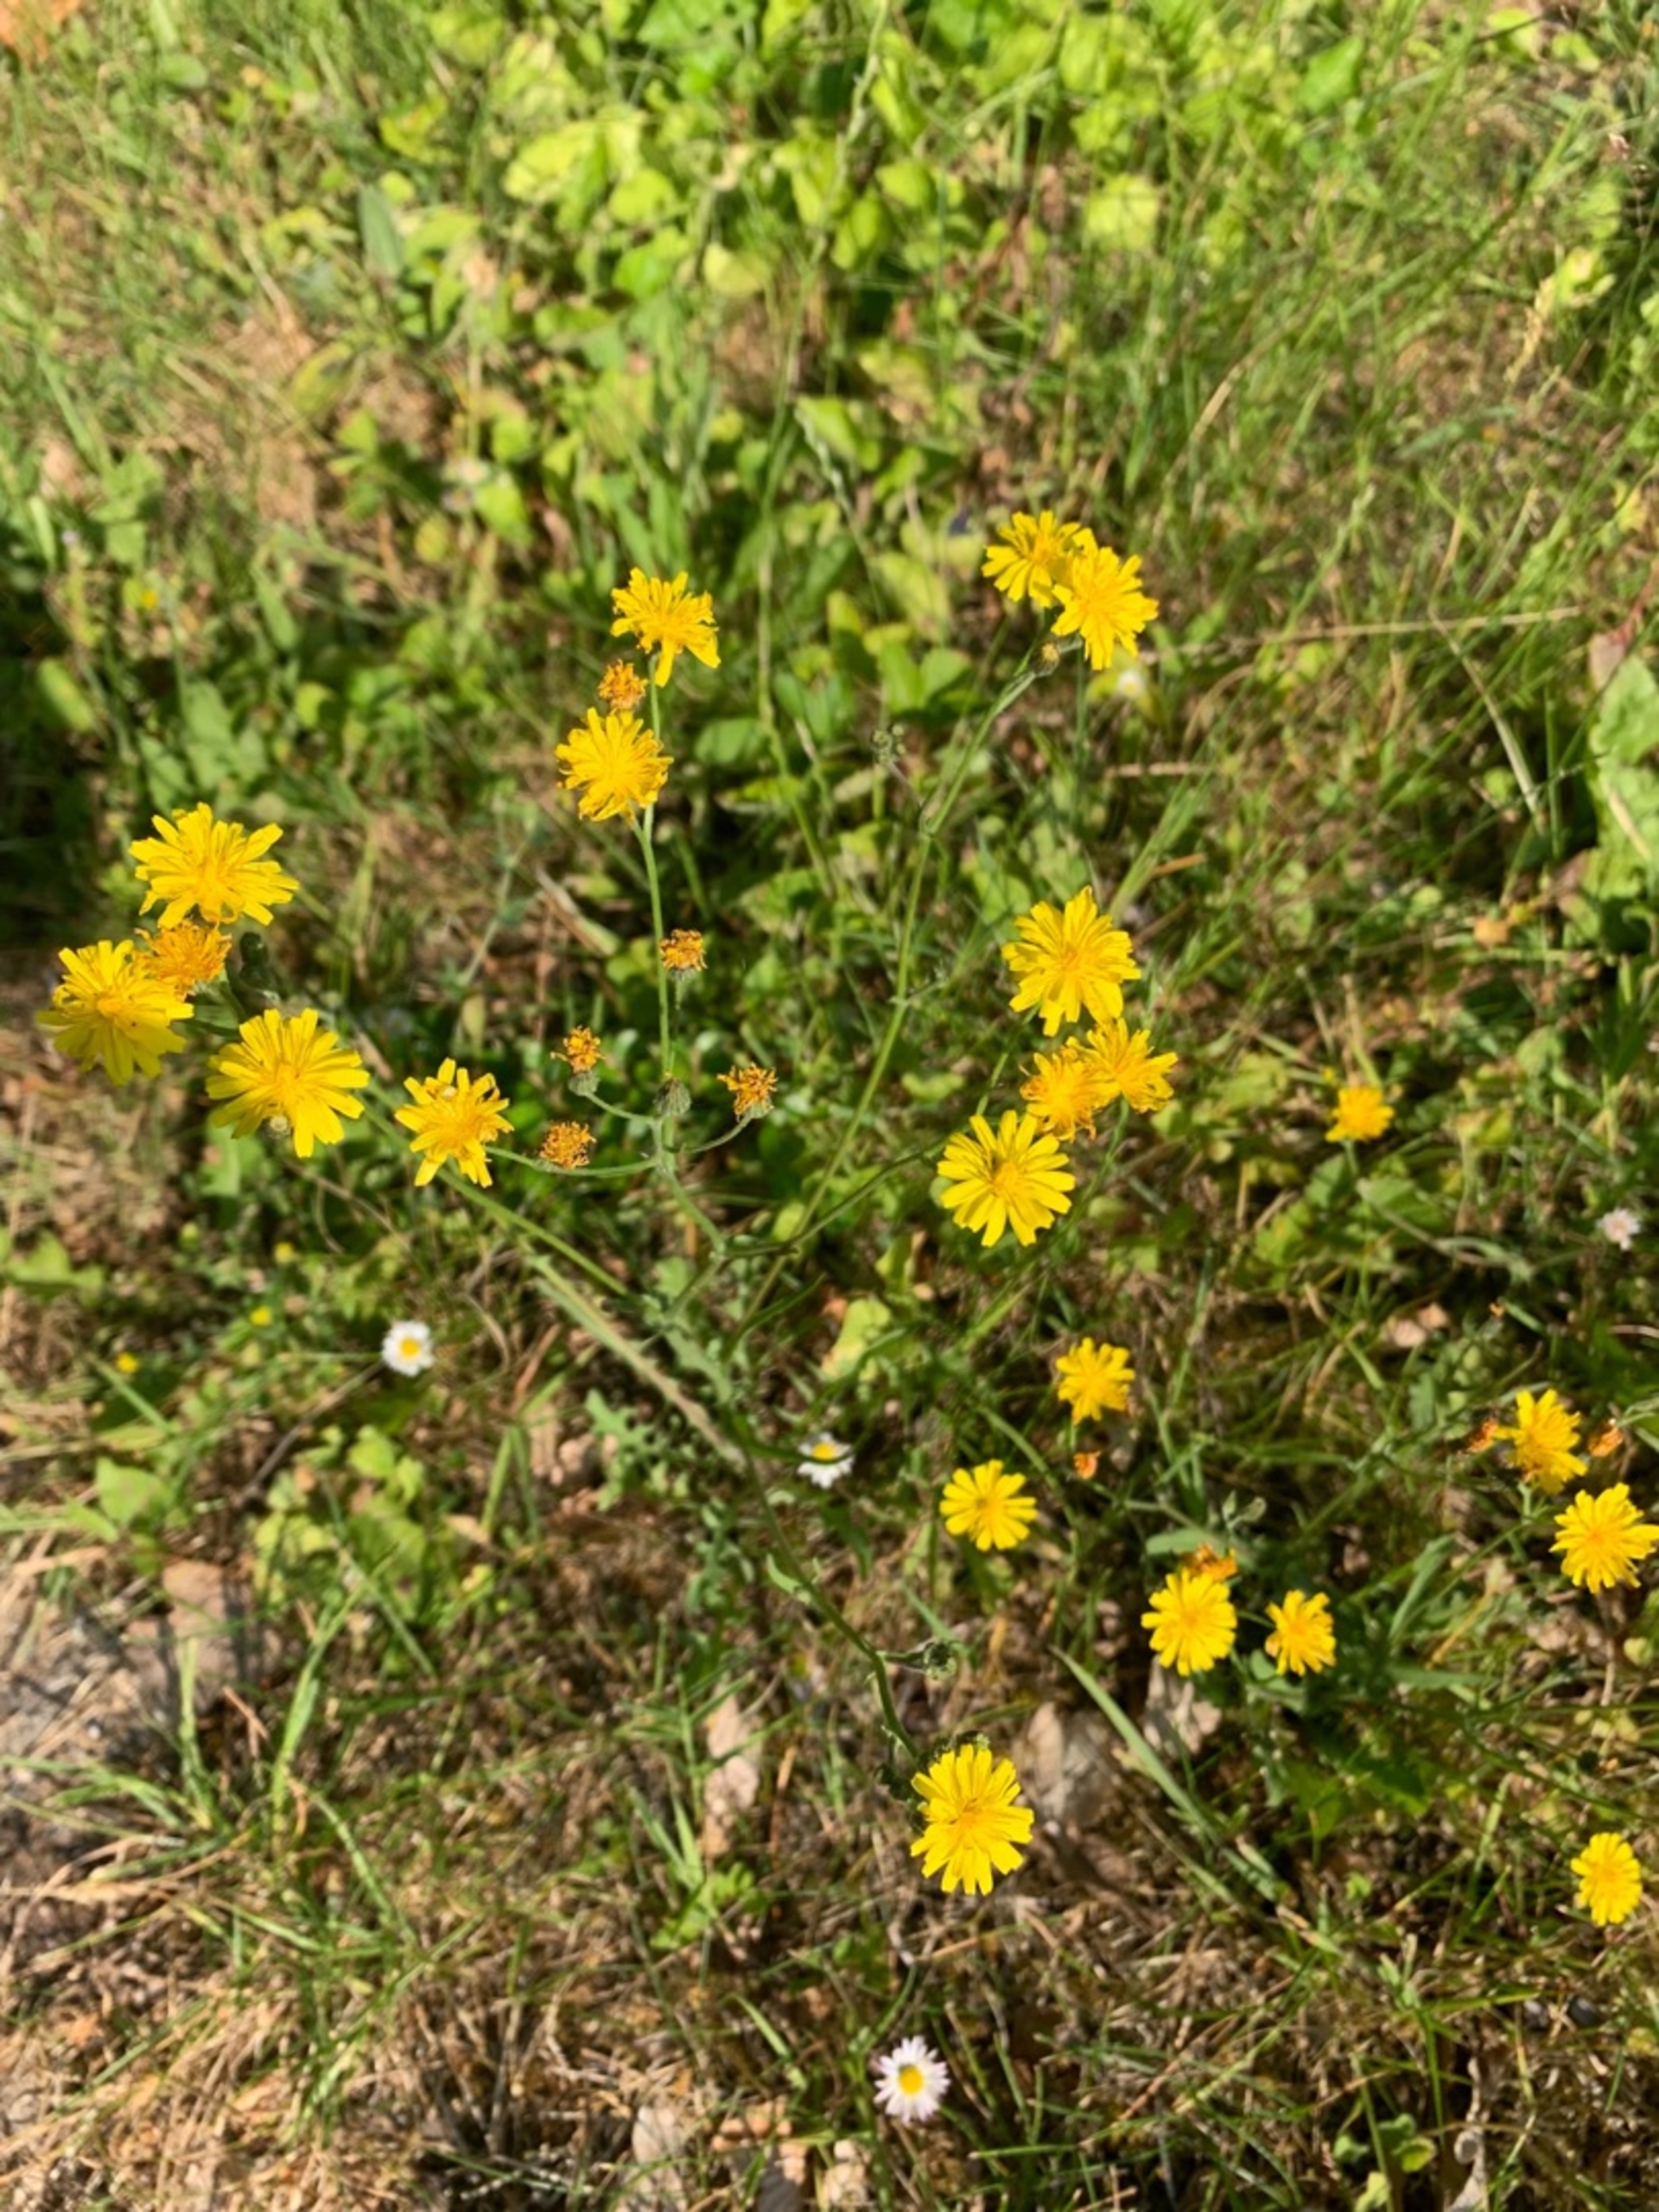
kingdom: Plantae
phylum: Tracheophyta
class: Magnoliopsida
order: Asterales
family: Asteraceae
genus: Crepis
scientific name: Crepis
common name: Høgeskægslægten
